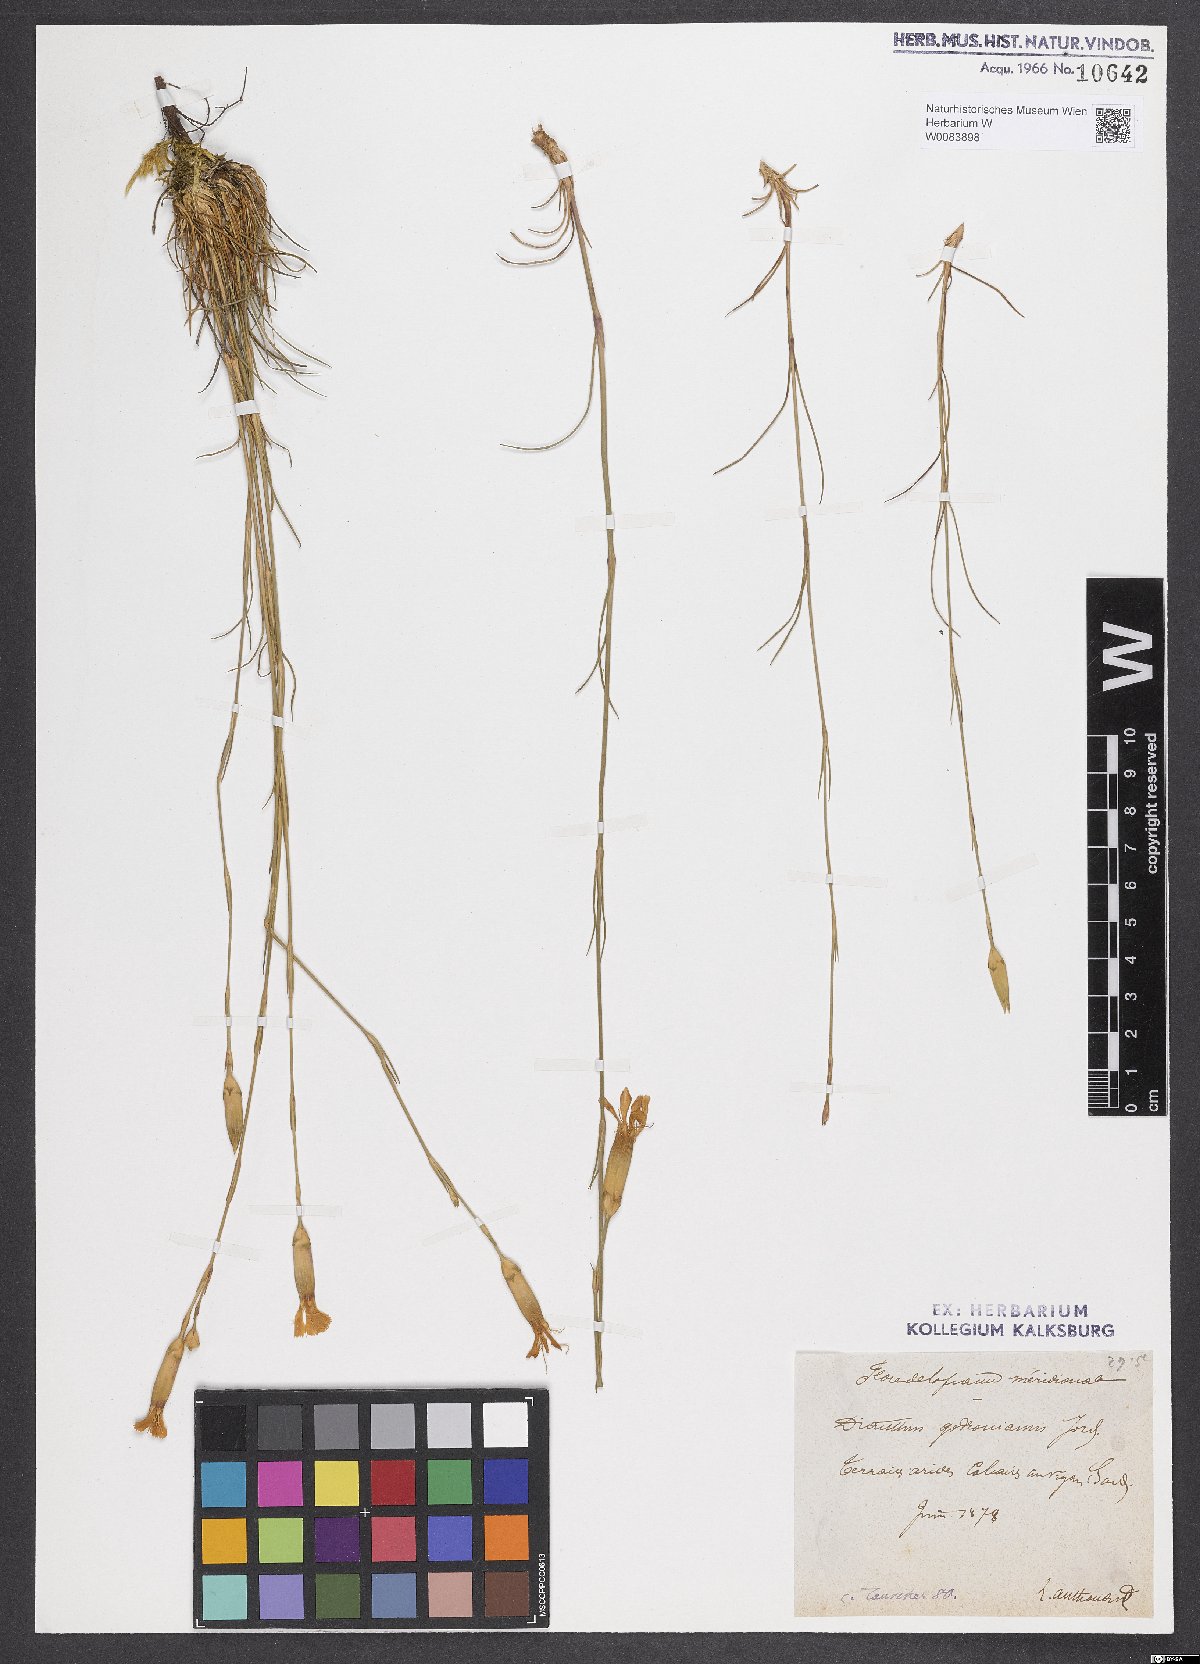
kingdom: Plantae
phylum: Tracheophyta
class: Magnoliopsida
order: Caryophyllales
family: Caryophyllaceae
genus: Dianthus
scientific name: Dianthus virgineus
